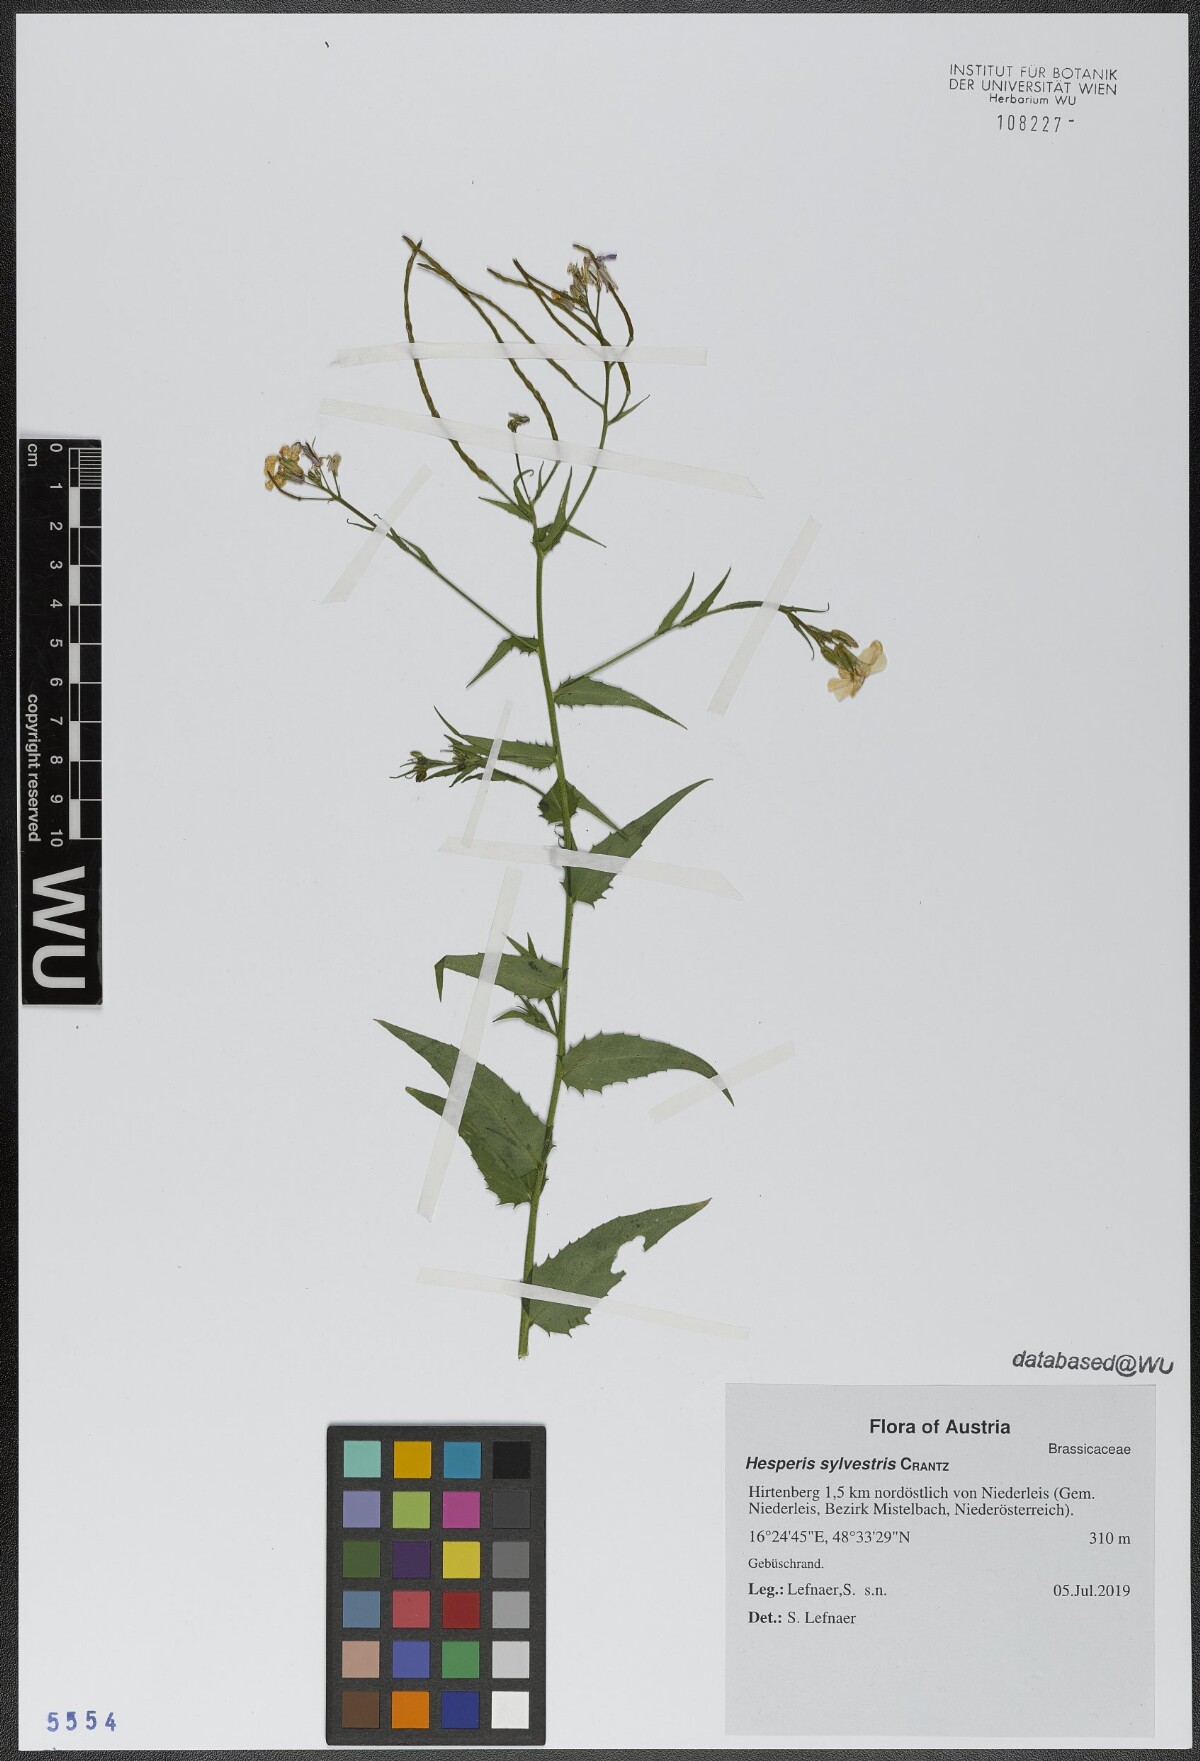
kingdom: Plantae
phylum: Tracheophyta
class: Magnoliopsida
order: Brassicales
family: Brassicaceae
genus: Hesperis
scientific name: Hesperis sylvestris
